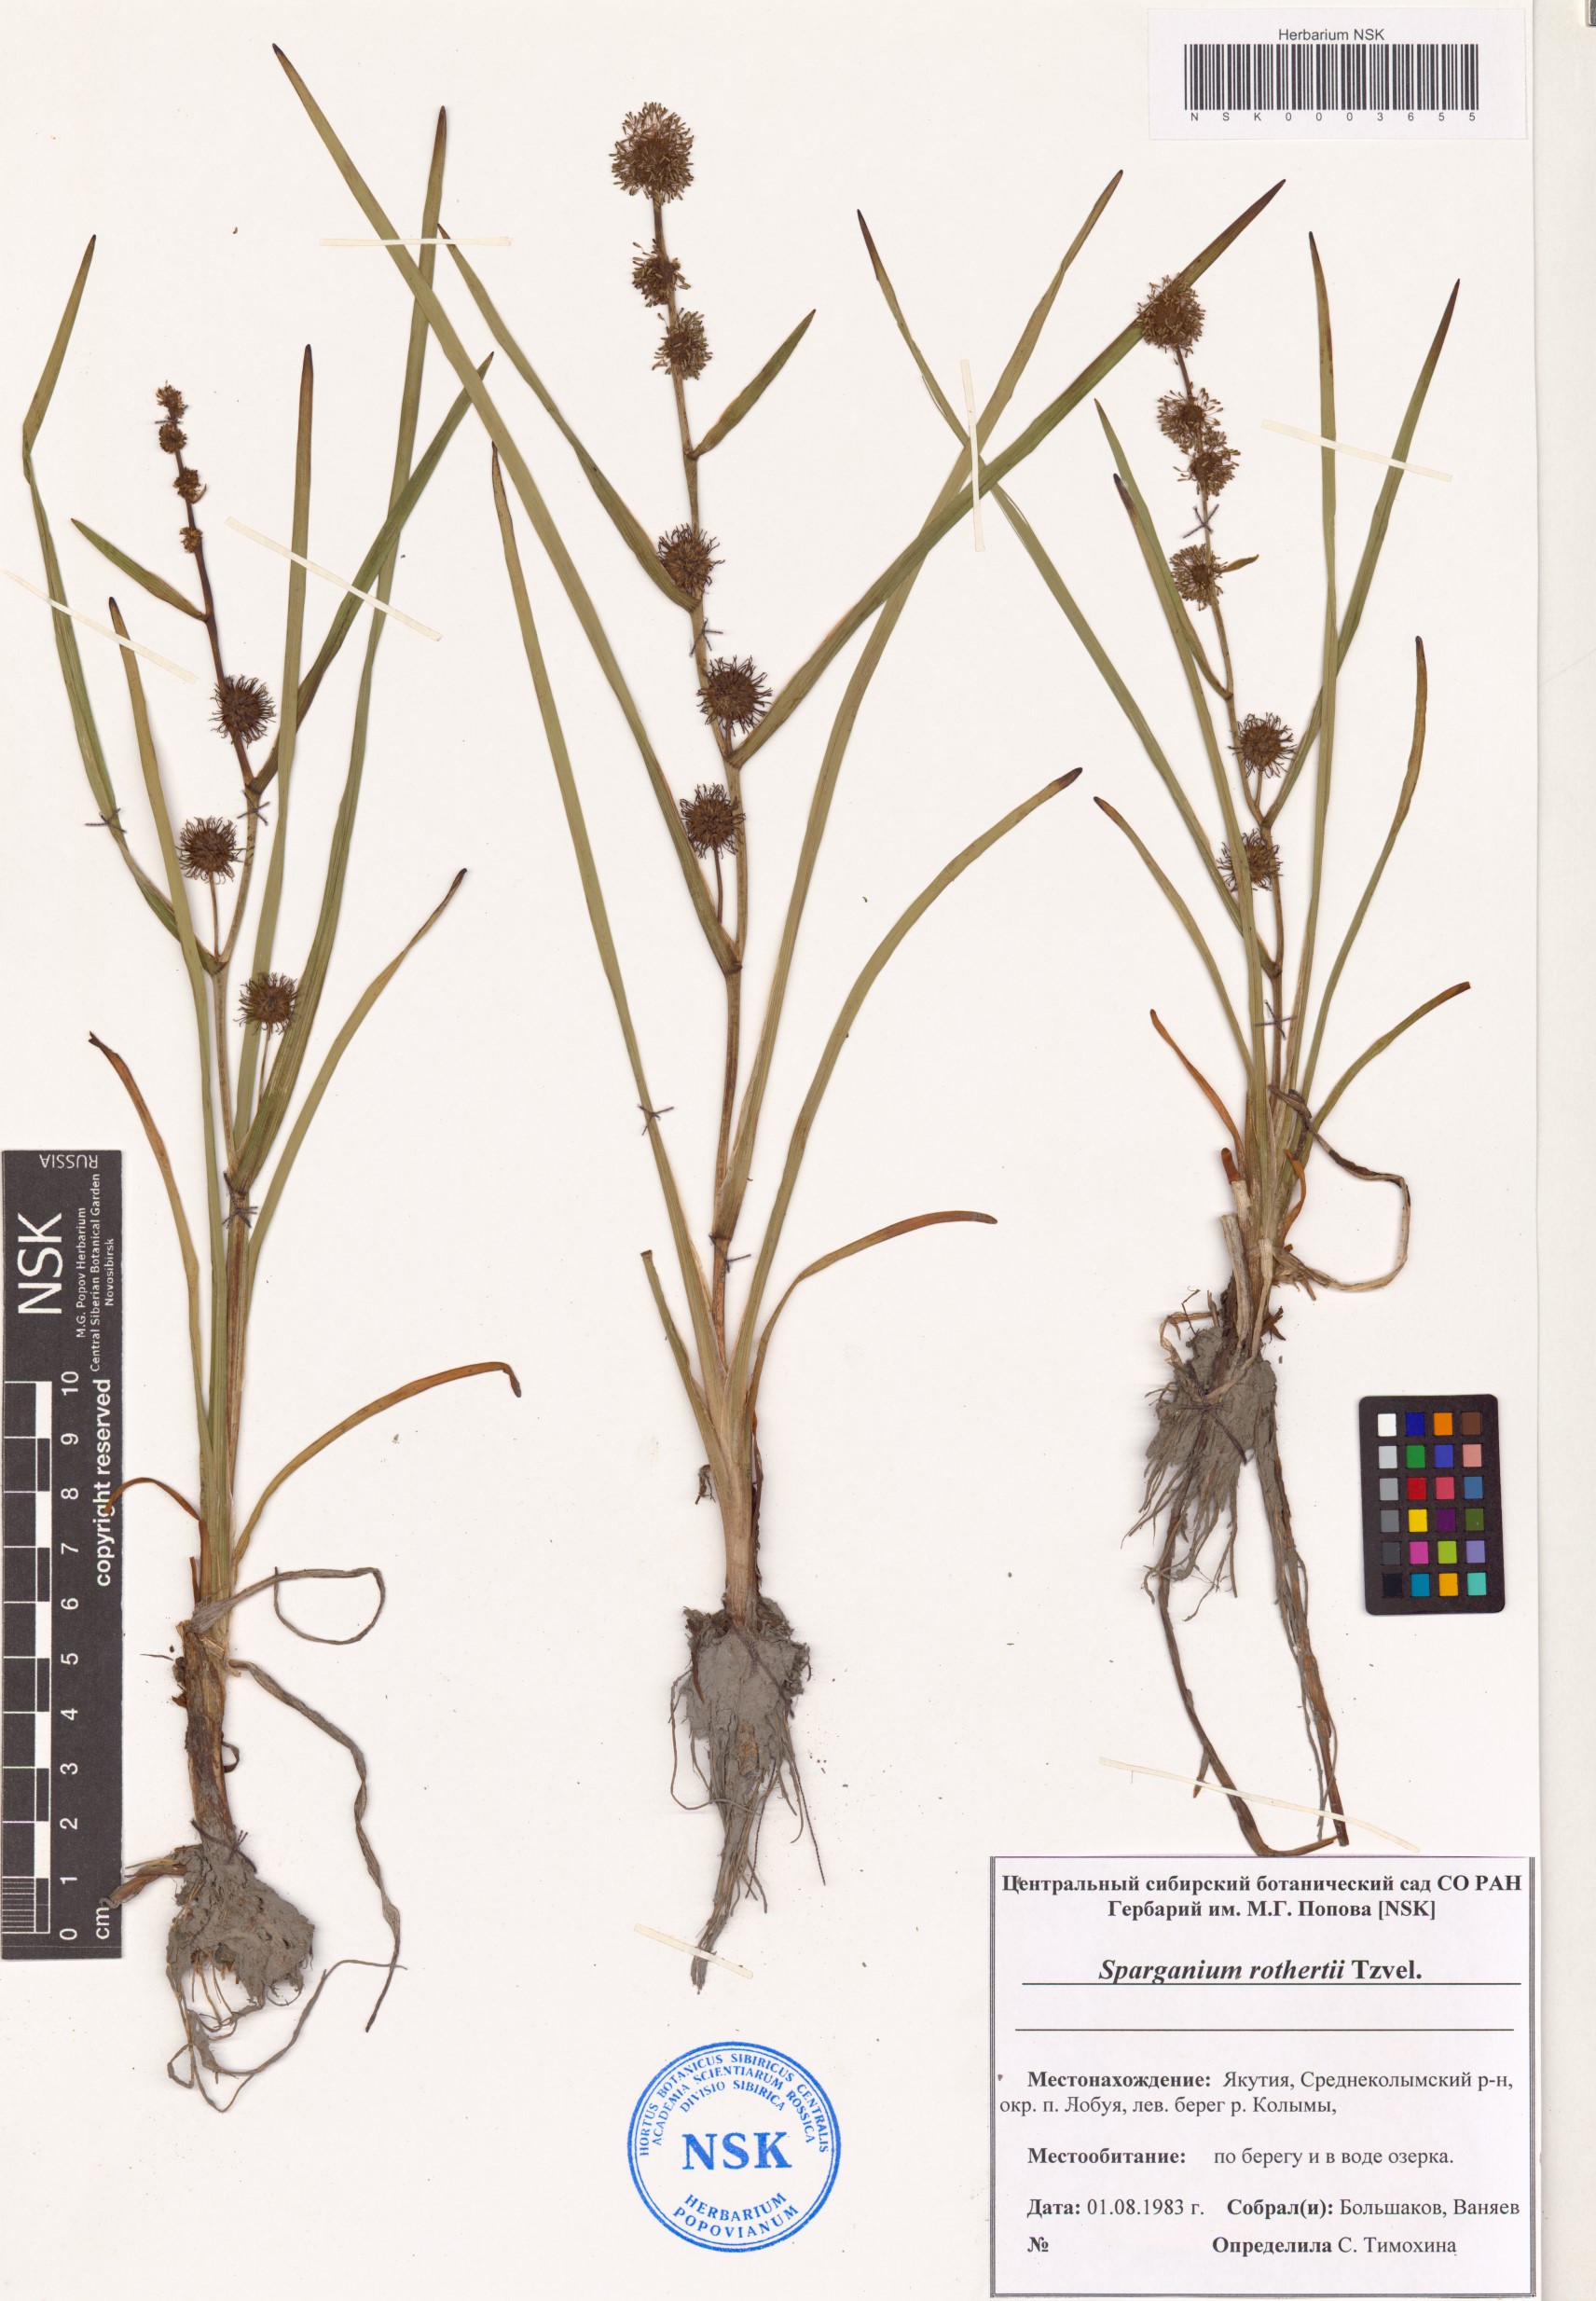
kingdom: Plantae
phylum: Tracheophyta
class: Liliopsida
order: Poales
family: Typhaceae
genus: Sparganium
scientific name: Sparganium rothertii
